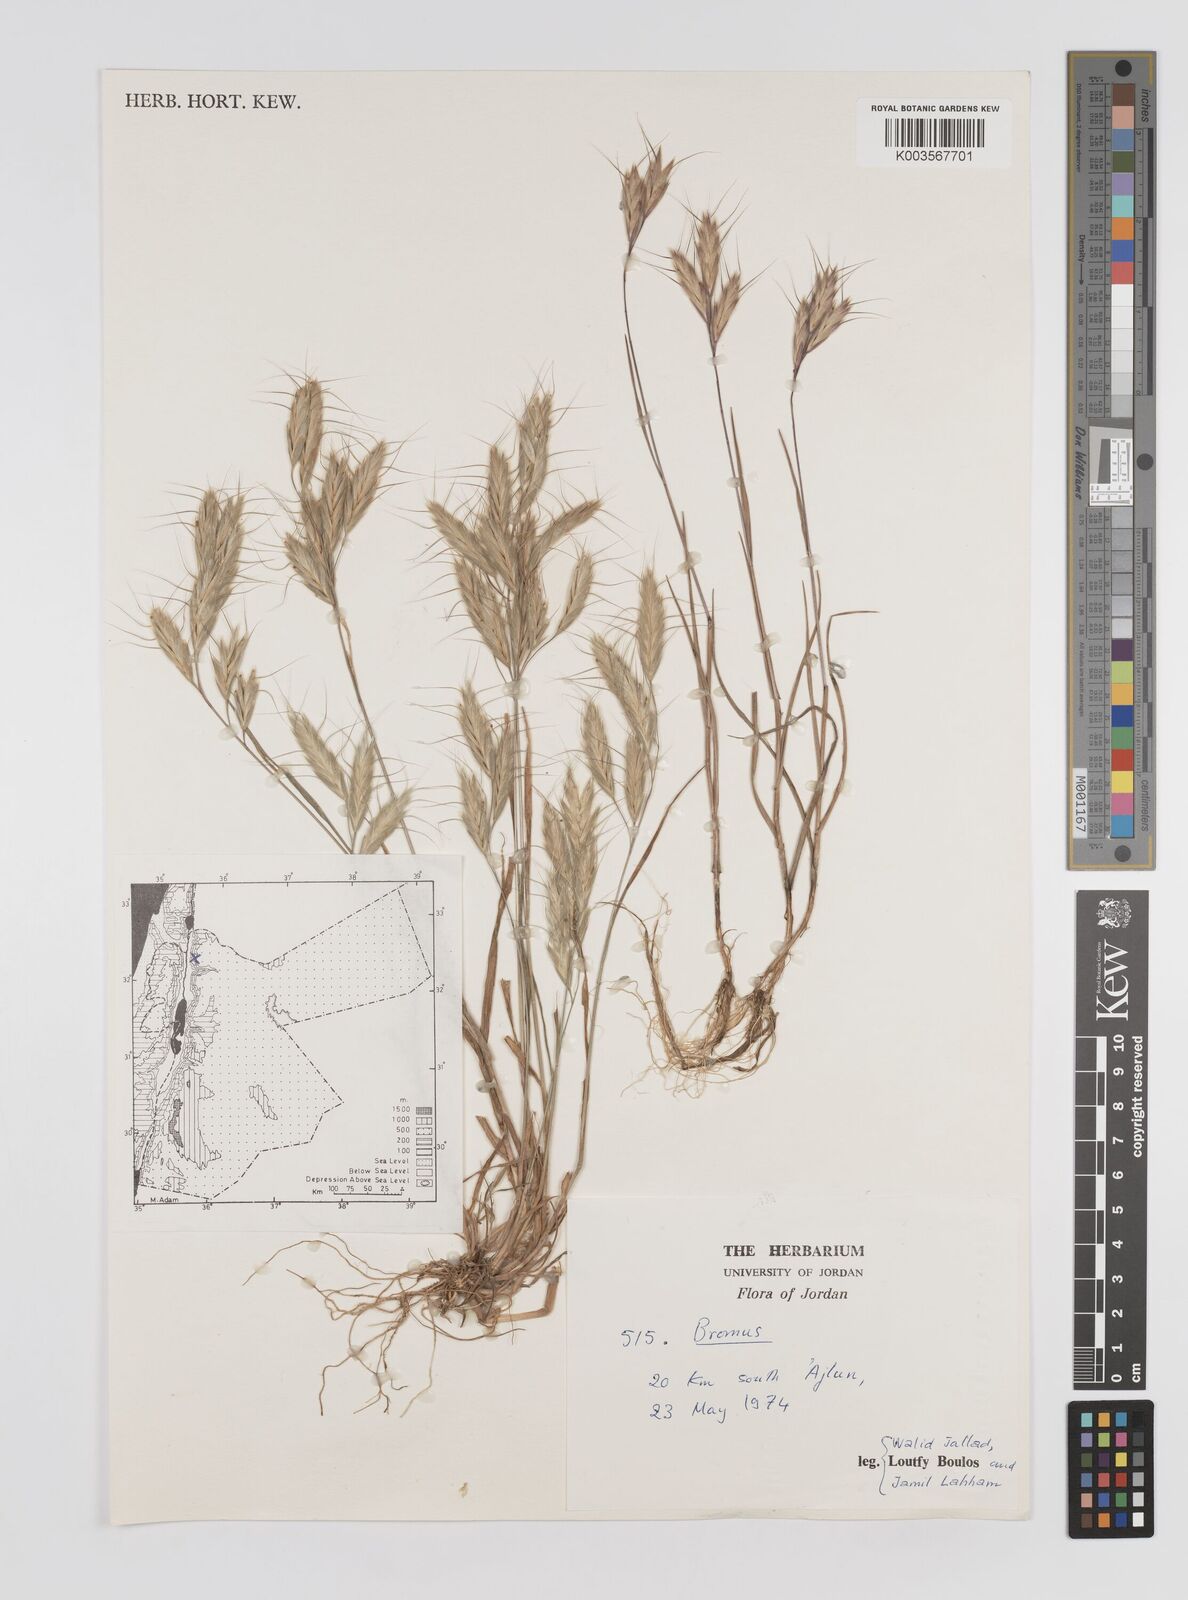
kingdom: Plantae
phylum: Tracheophyta
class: Liliopsida
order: Poales
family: Poaceae
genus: Bromus
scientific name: Bromus
